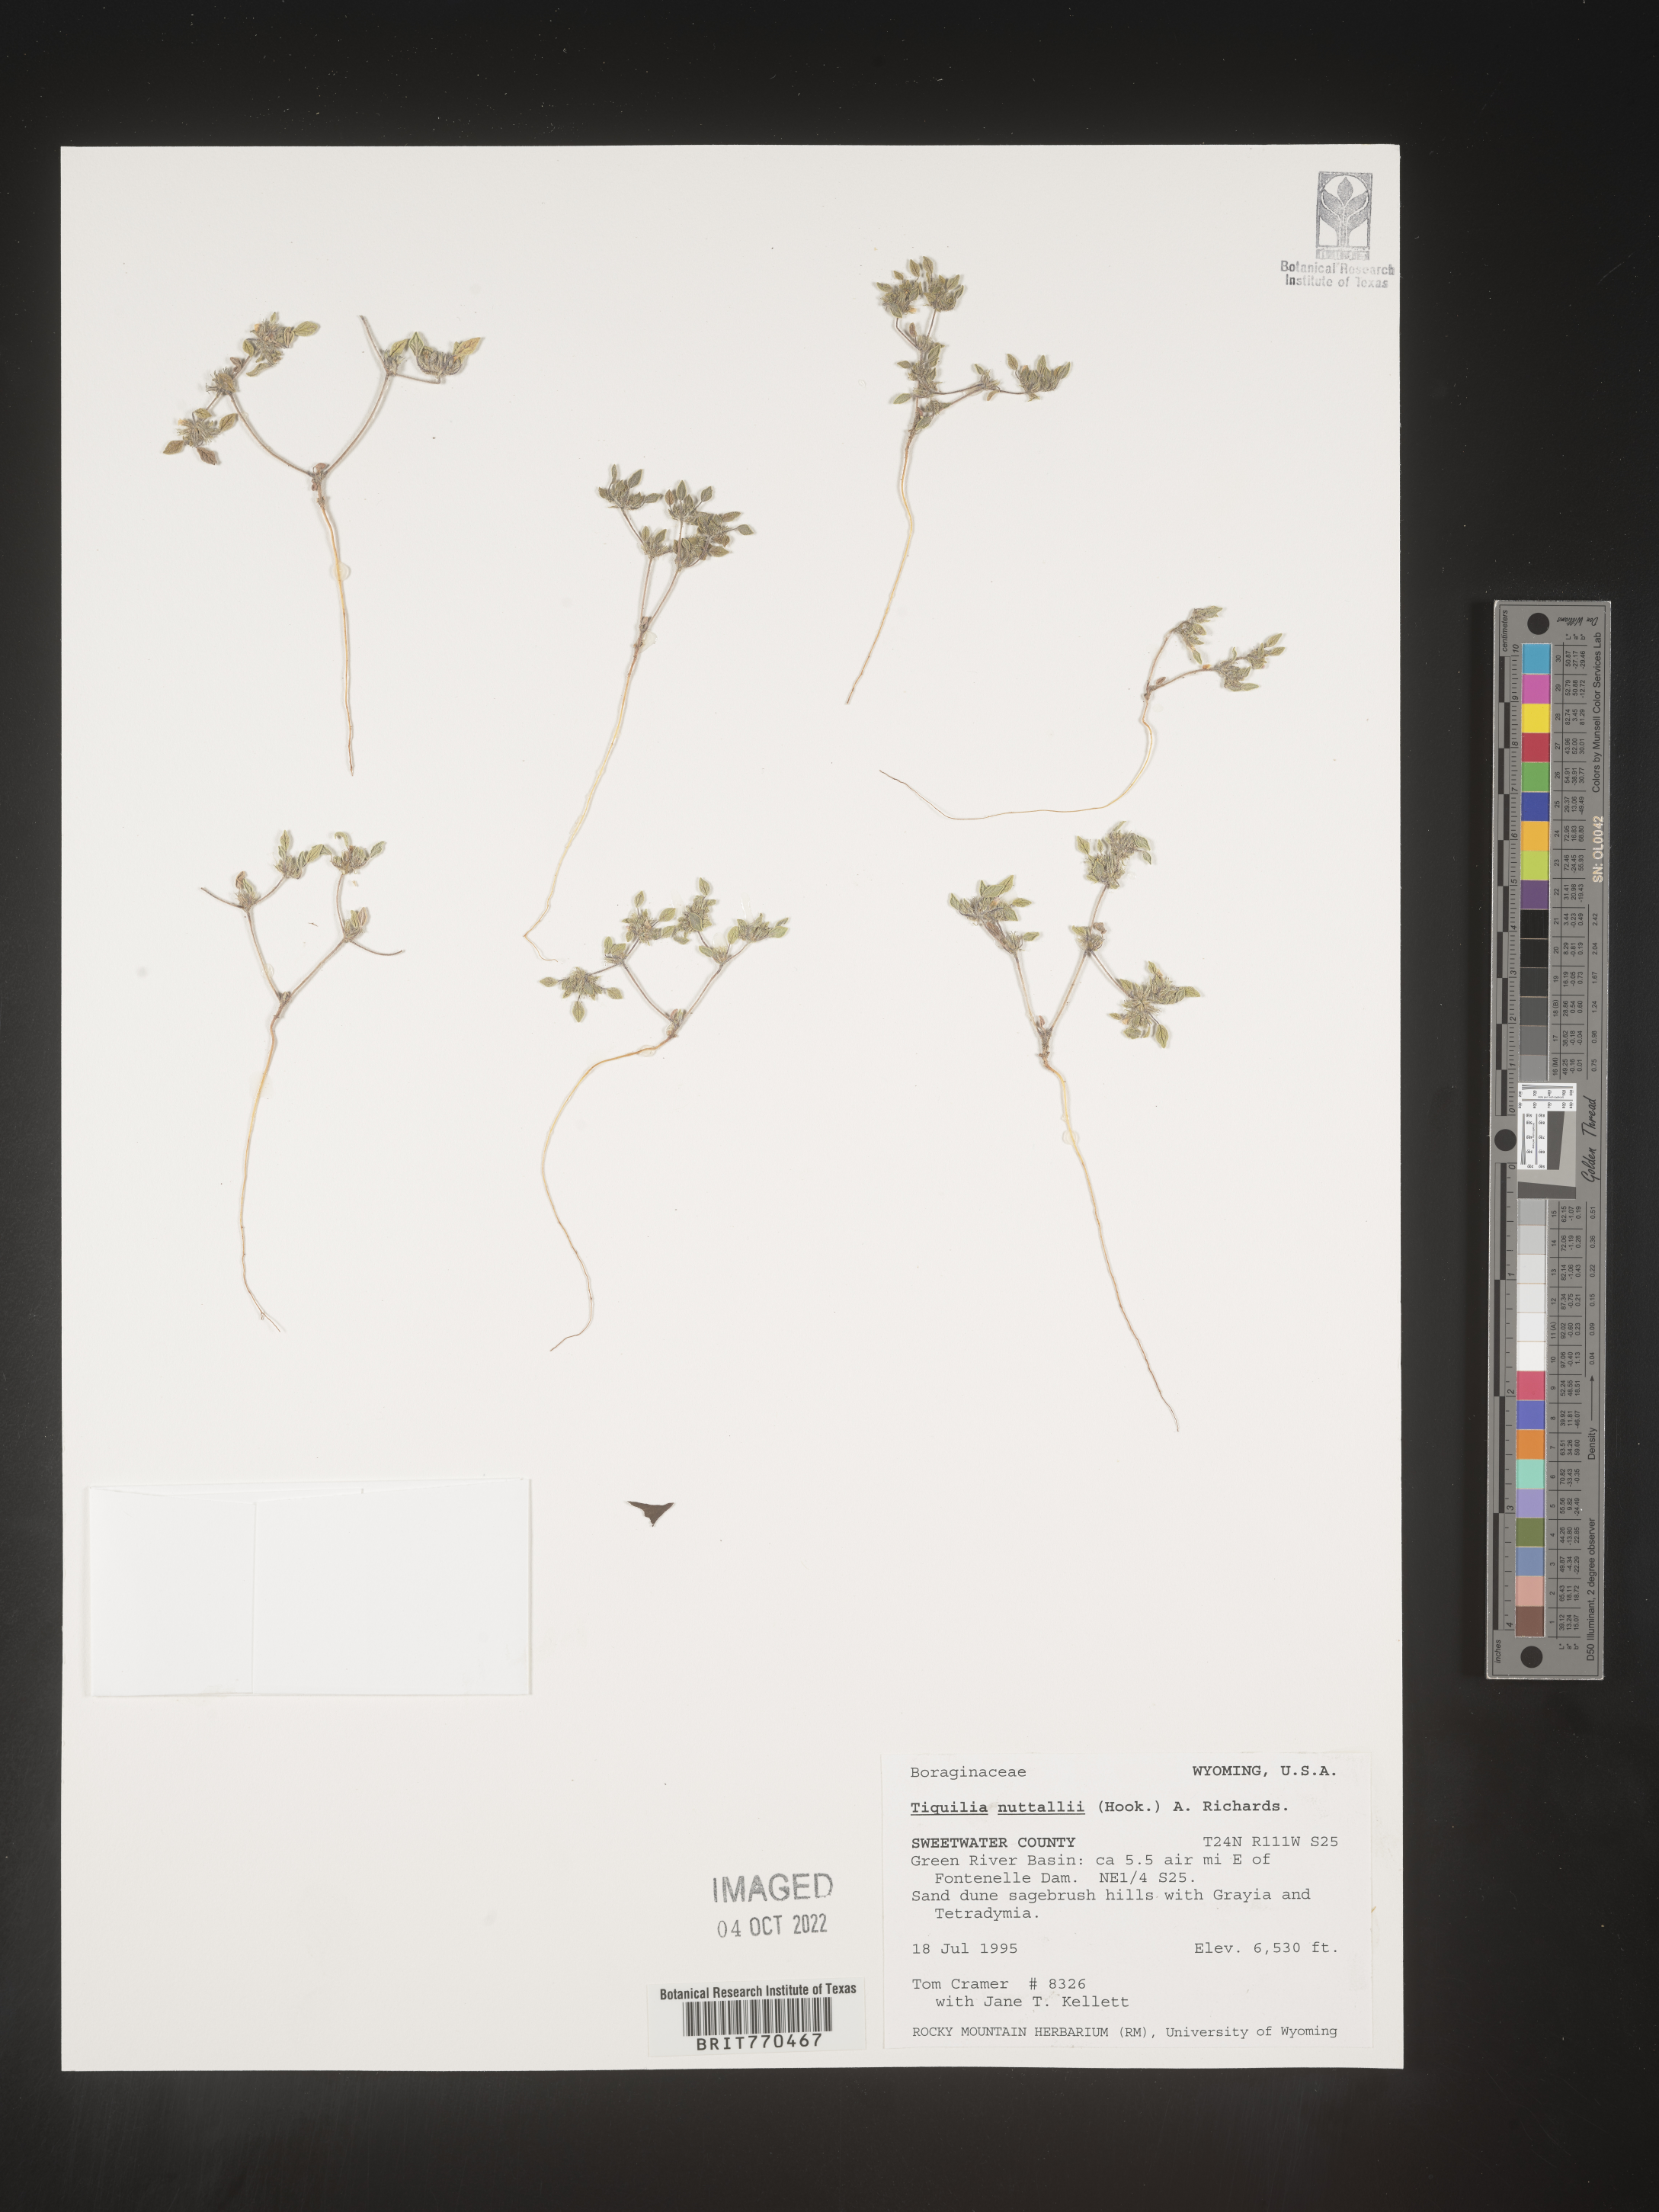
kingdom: Plantae
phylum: Tracheophyta
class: Magnoliopsida
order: Boraginales
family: Ehretiaceae
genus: Tiquilia
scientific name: Tiquilia
